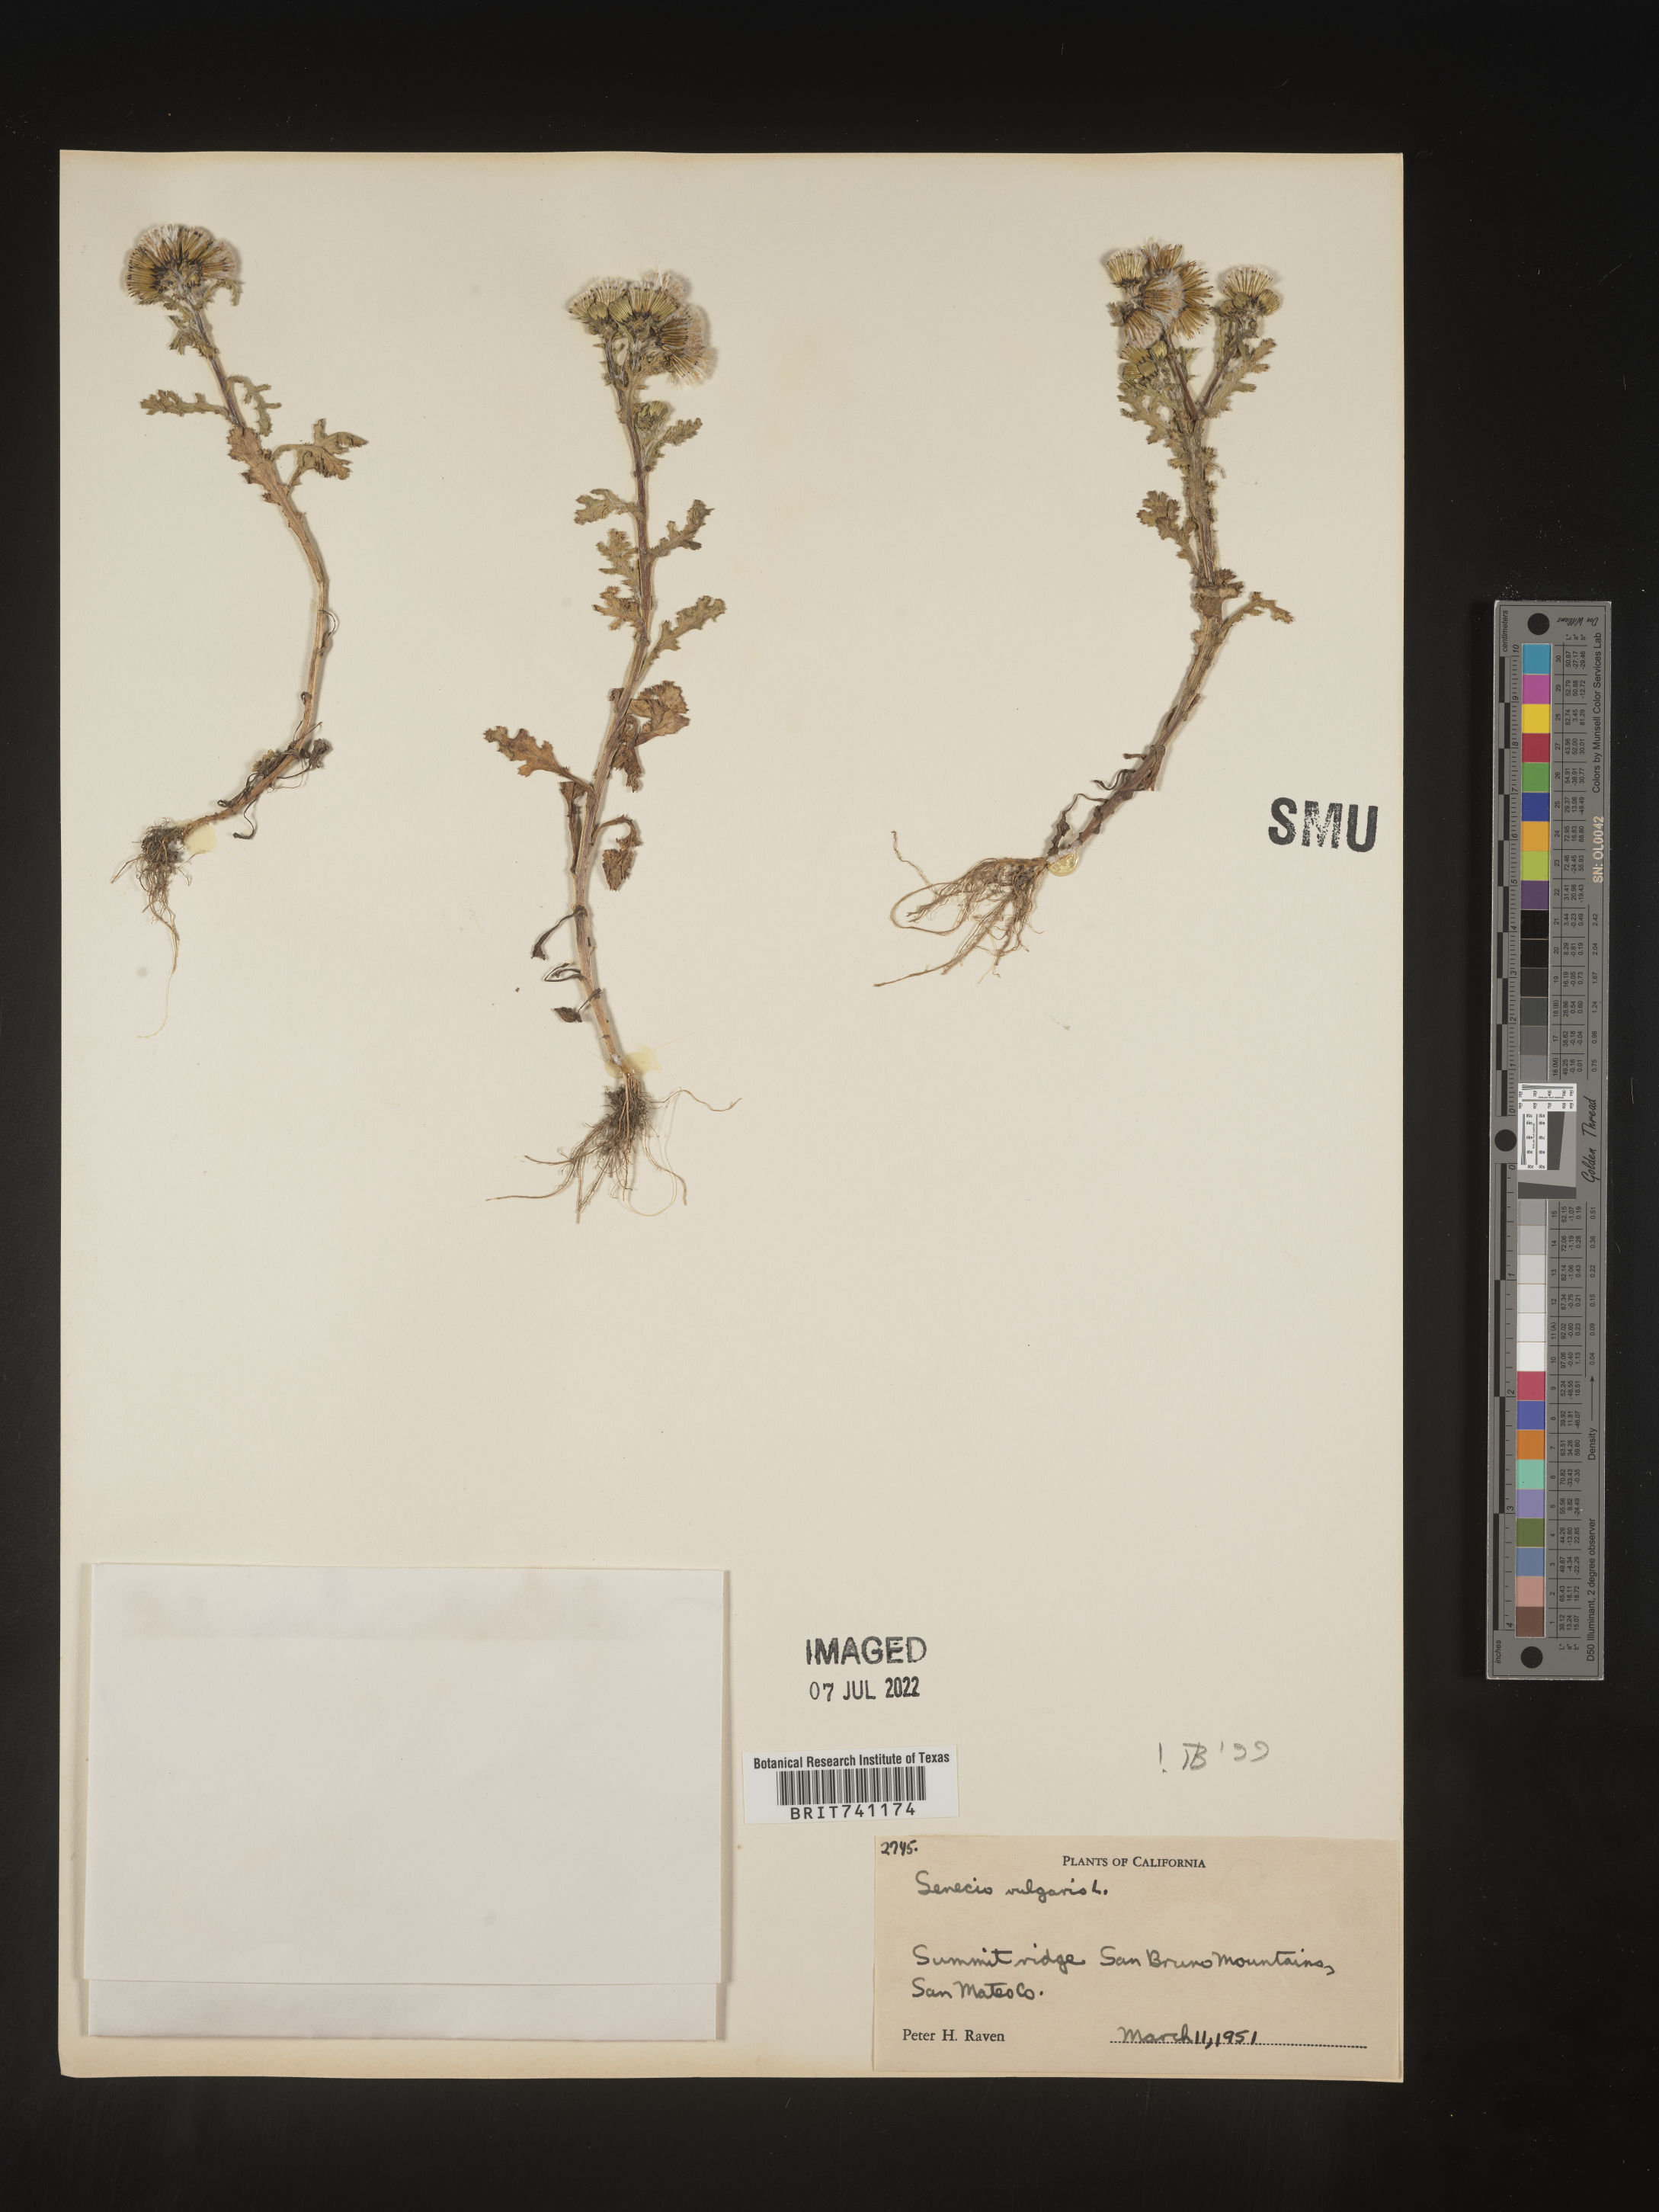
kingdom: Plantae
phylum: Tracheophyta
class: Magnoliopsida
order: Asterales
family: Asteraceae
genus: Senecio
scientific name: Senecio vulgaris
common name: Old-man-in-the-spring
